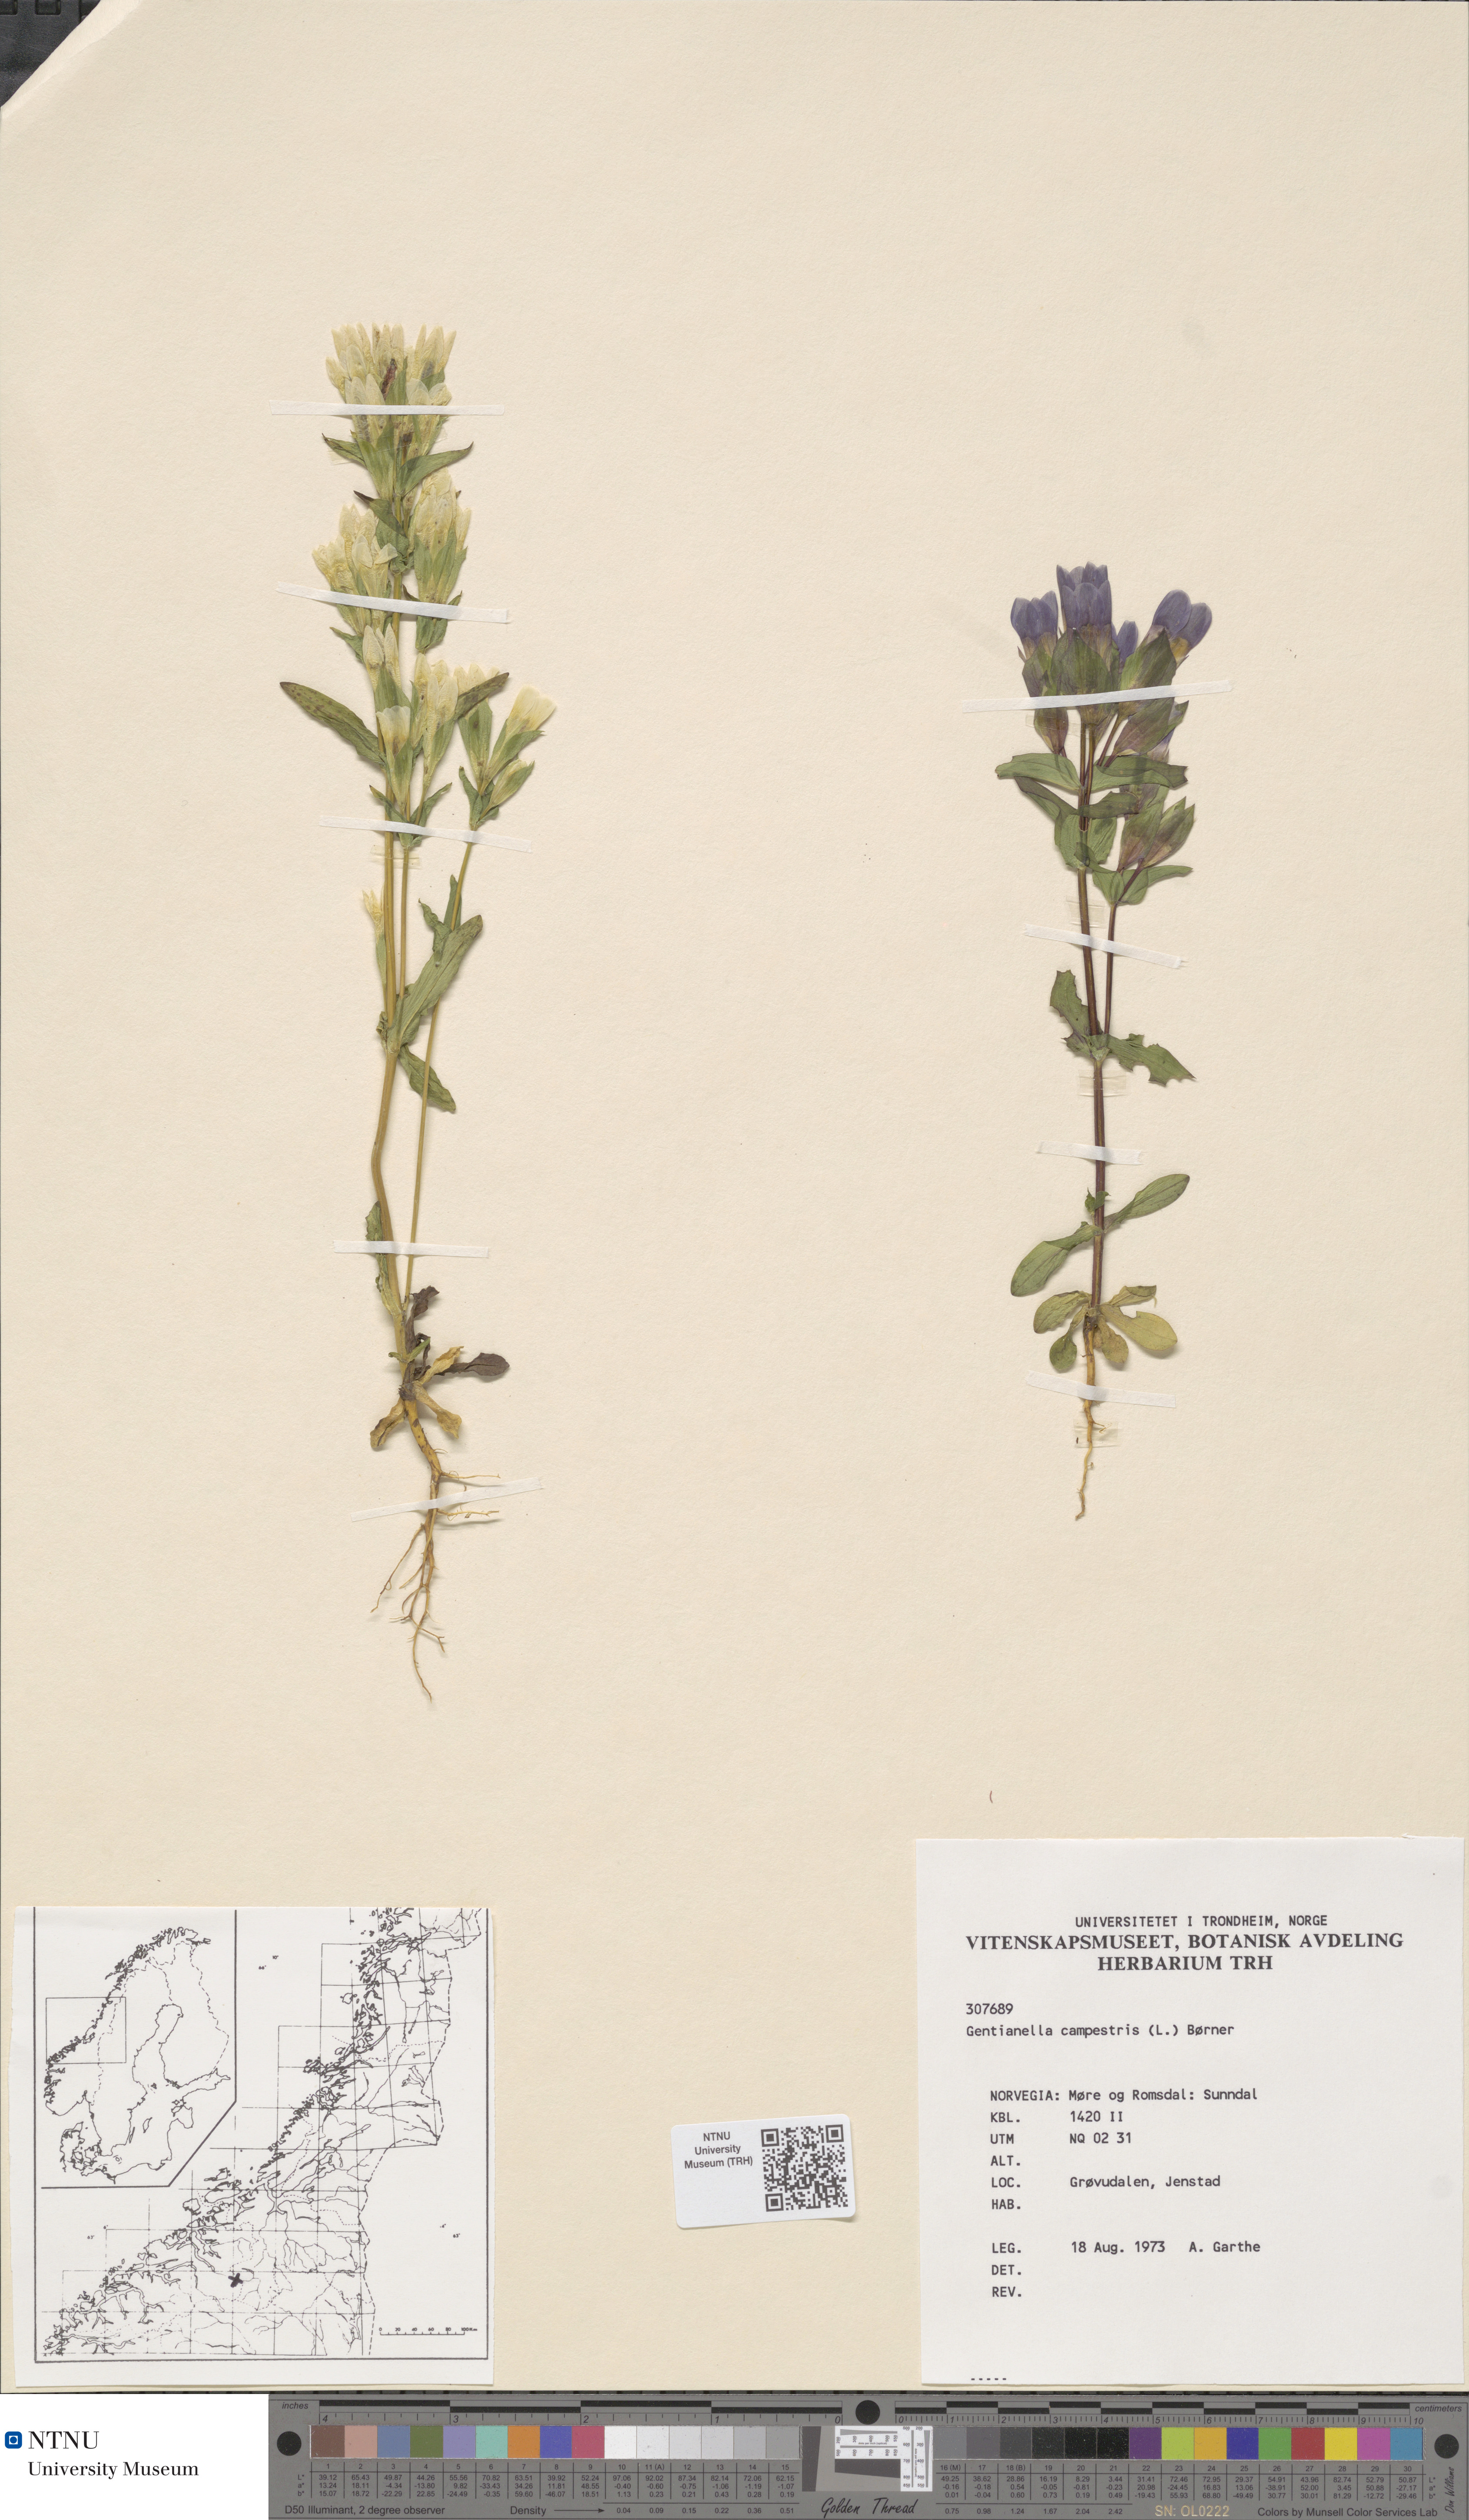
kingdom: Plantae
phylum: Tracheophyta
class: Magnoliopsida
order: Gentianales
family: Gentianaceae
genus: Gentianella
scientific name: Gentianella campestris
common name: Field gentian
